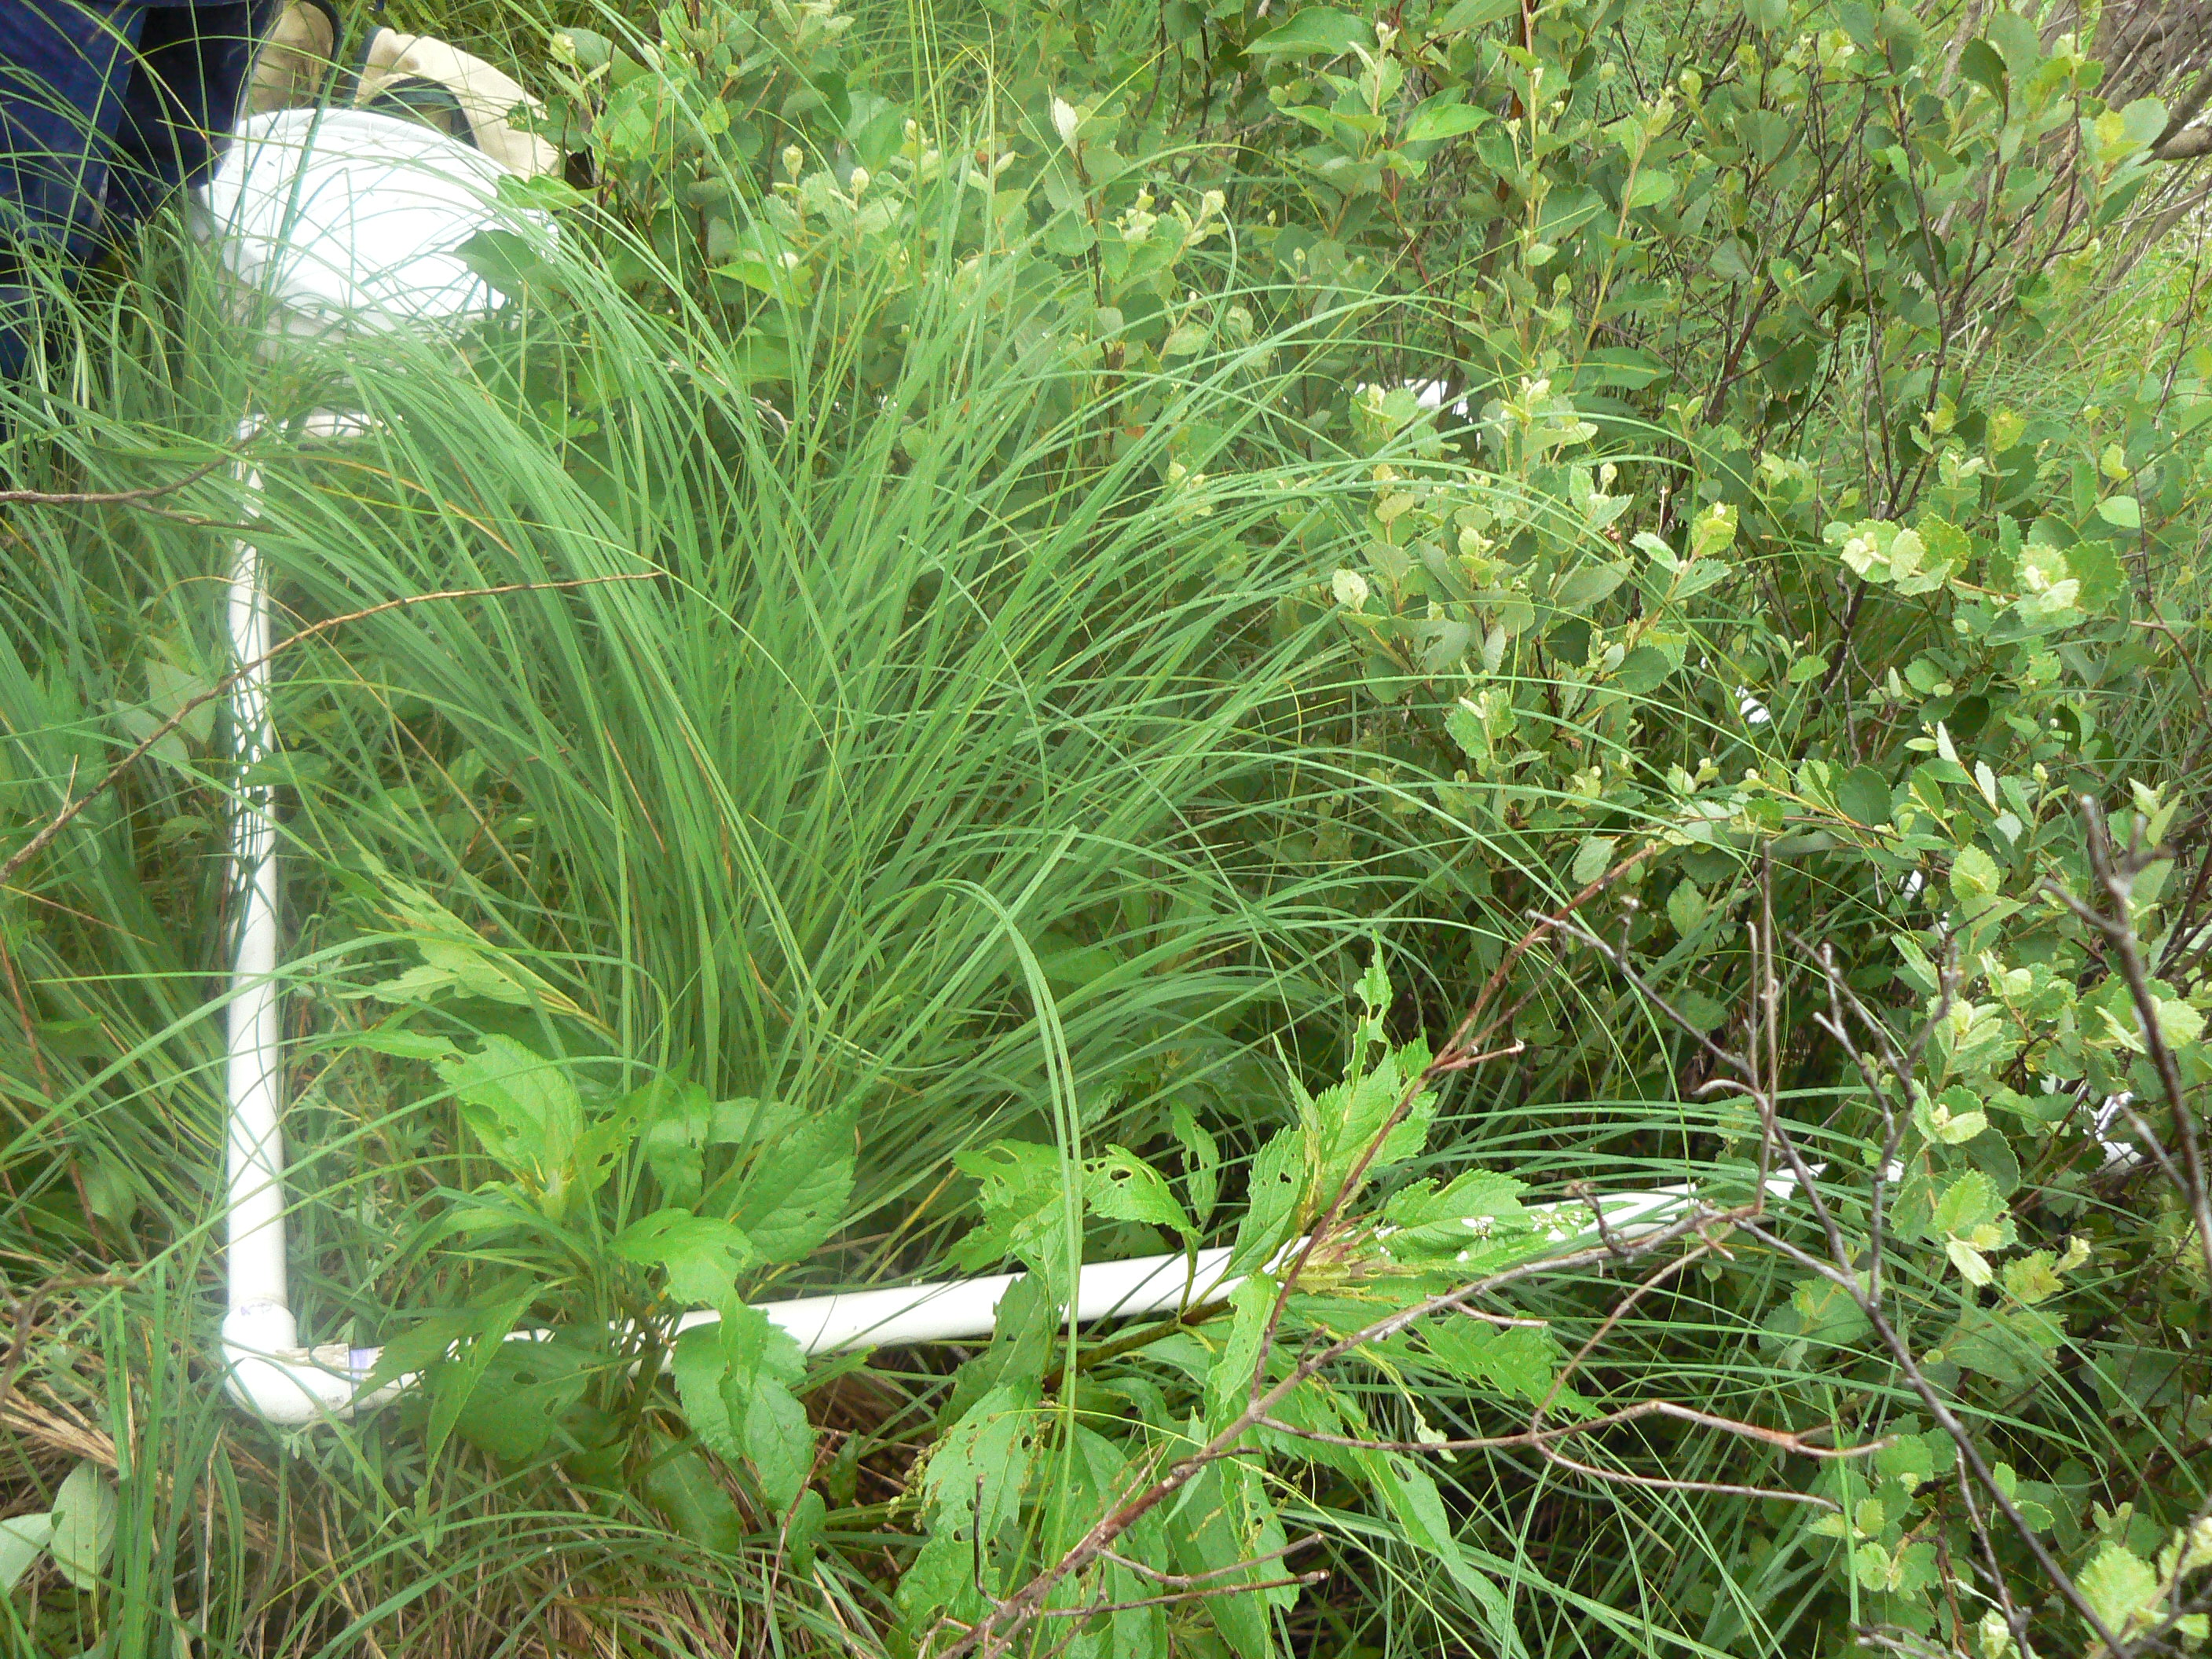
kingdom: Plantae
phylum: Tracheophyta
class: Magnoliopsida
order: Asterales
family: Asteraceae
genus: Eutrochium
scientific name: Eutrochium maculatum
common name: Spotted joe pye weed
